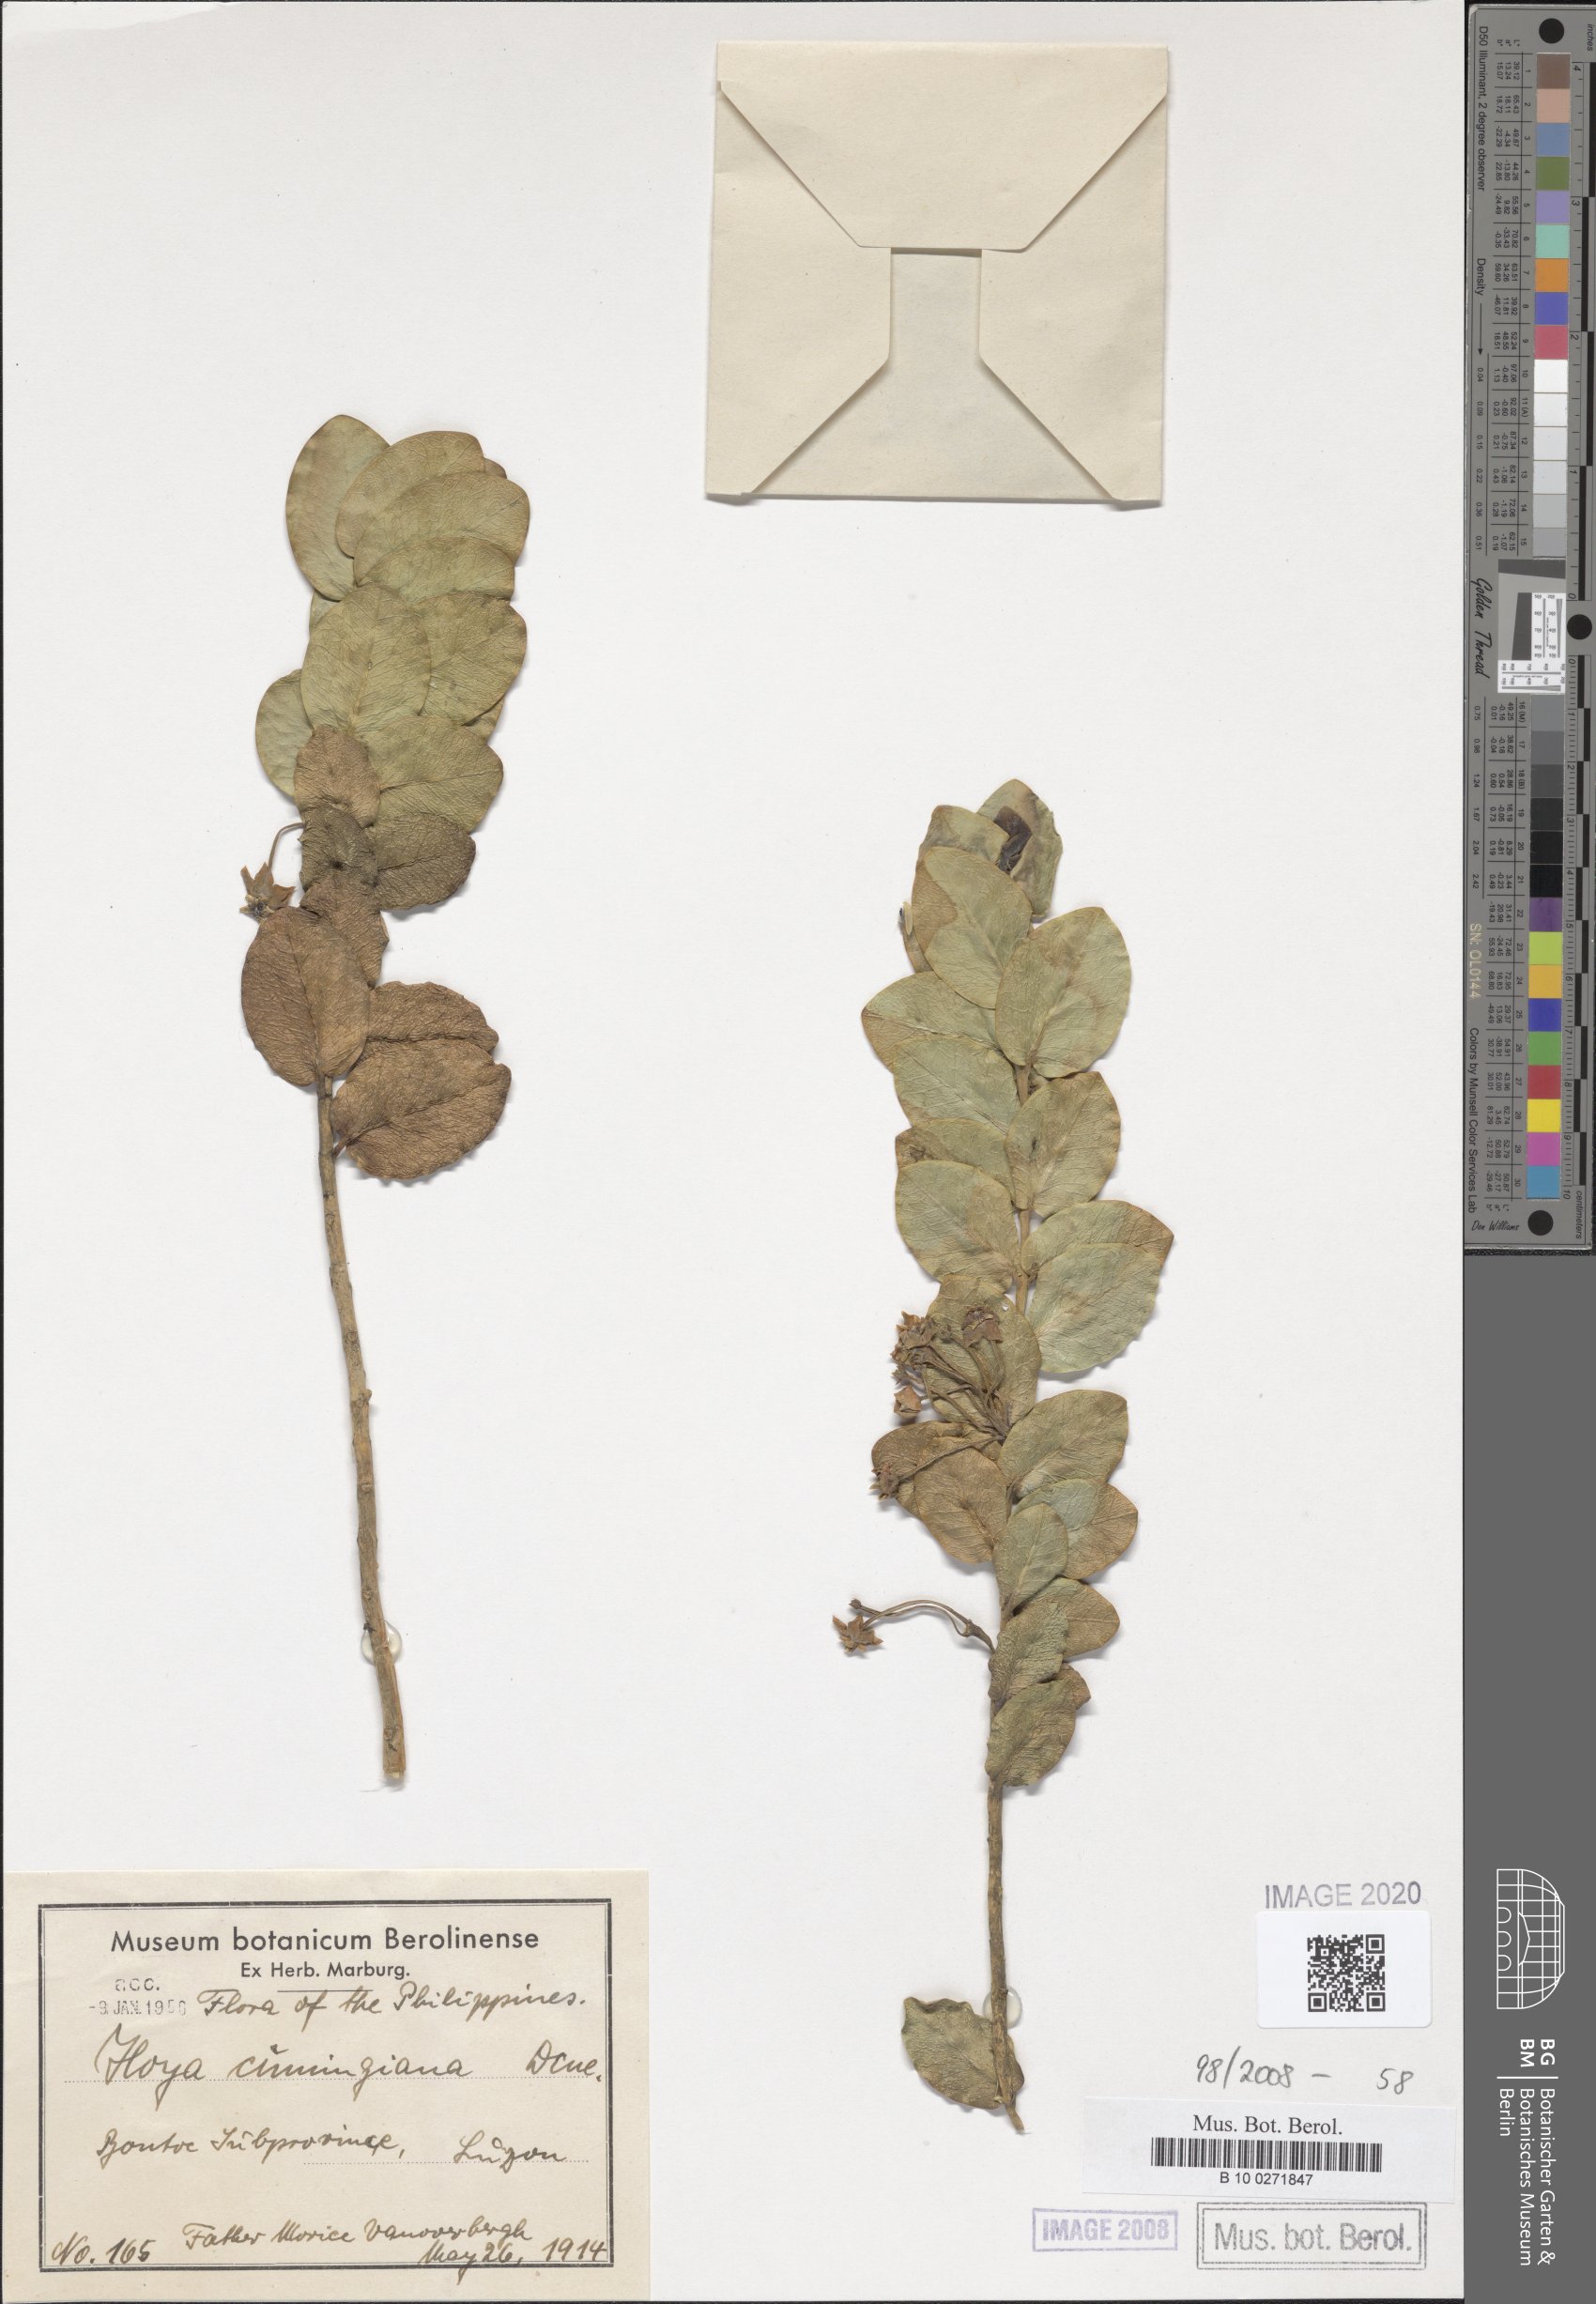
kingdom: Plantae
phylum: Tracheophyta
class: Magnoliopsida
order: Gentianales
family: Apocynaceae
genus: Hoya
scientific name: Hoya cumingiana
